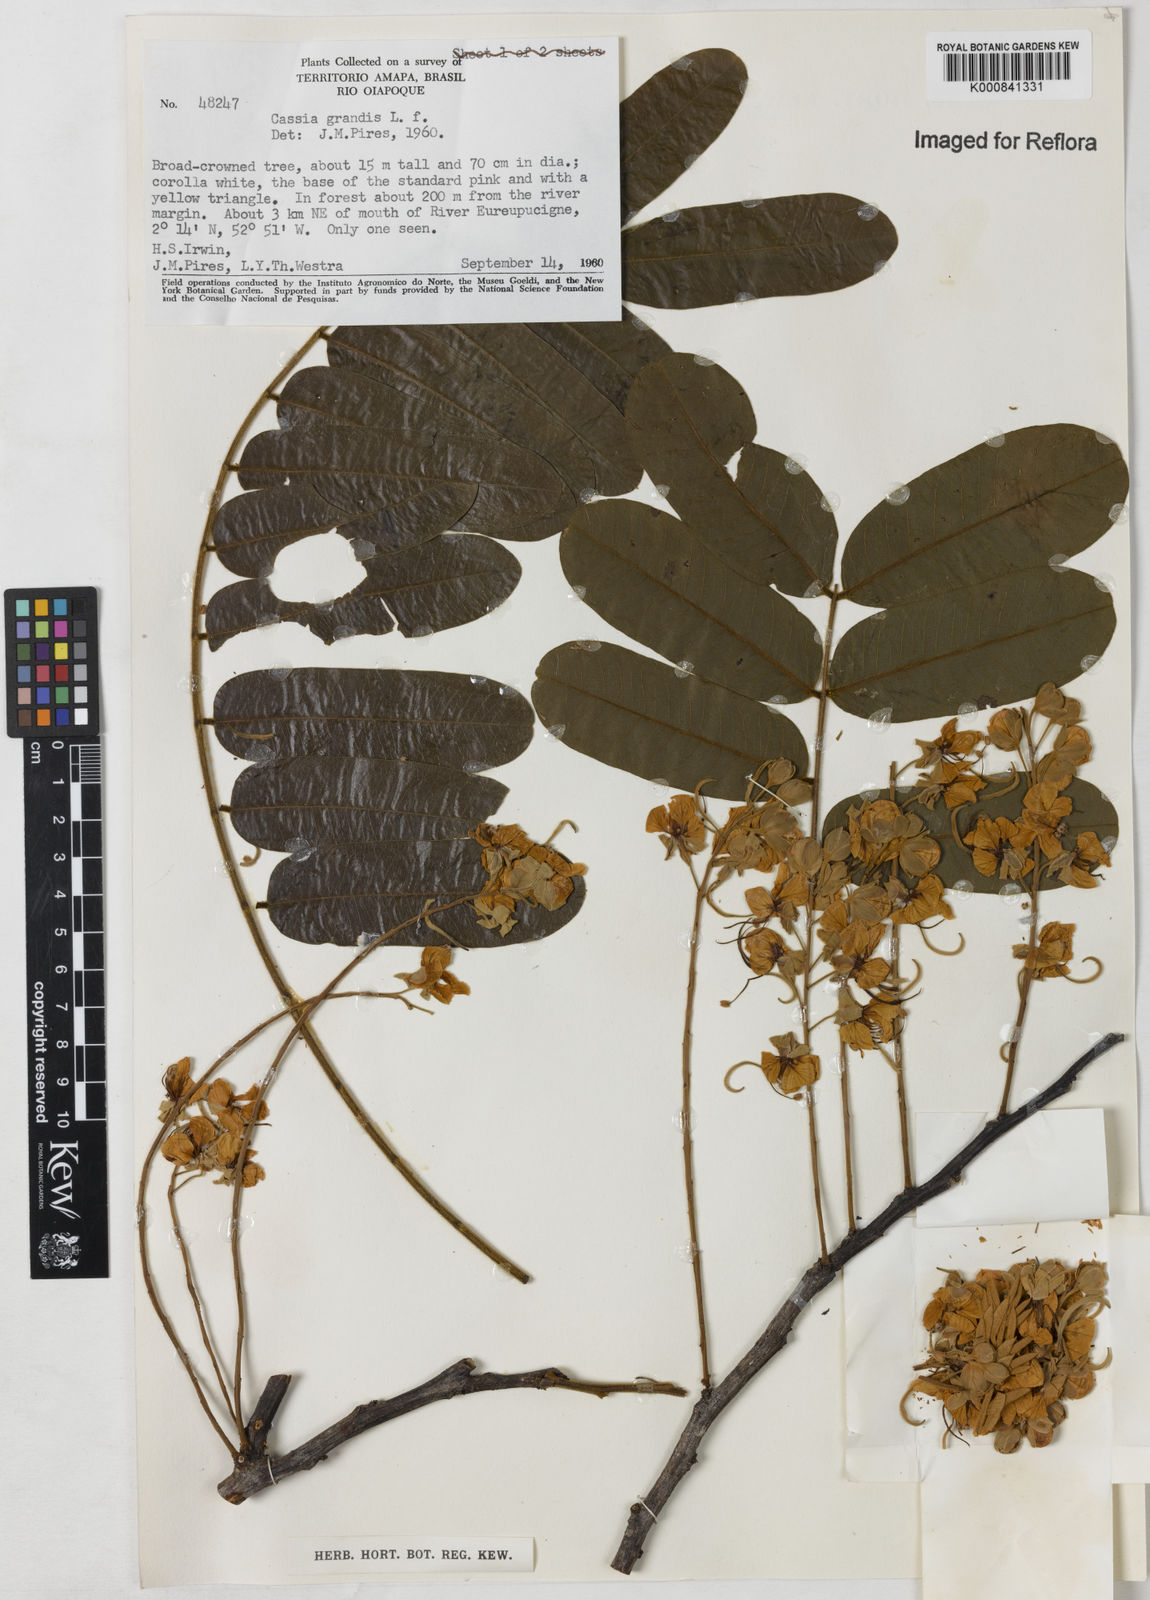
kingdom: Plantae
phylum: Tracheophyta
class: Magnoliopsida
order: Fabales
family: Fabaceae
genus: Cassia
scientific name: Cassia grandis
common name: Appleblossom cassia
